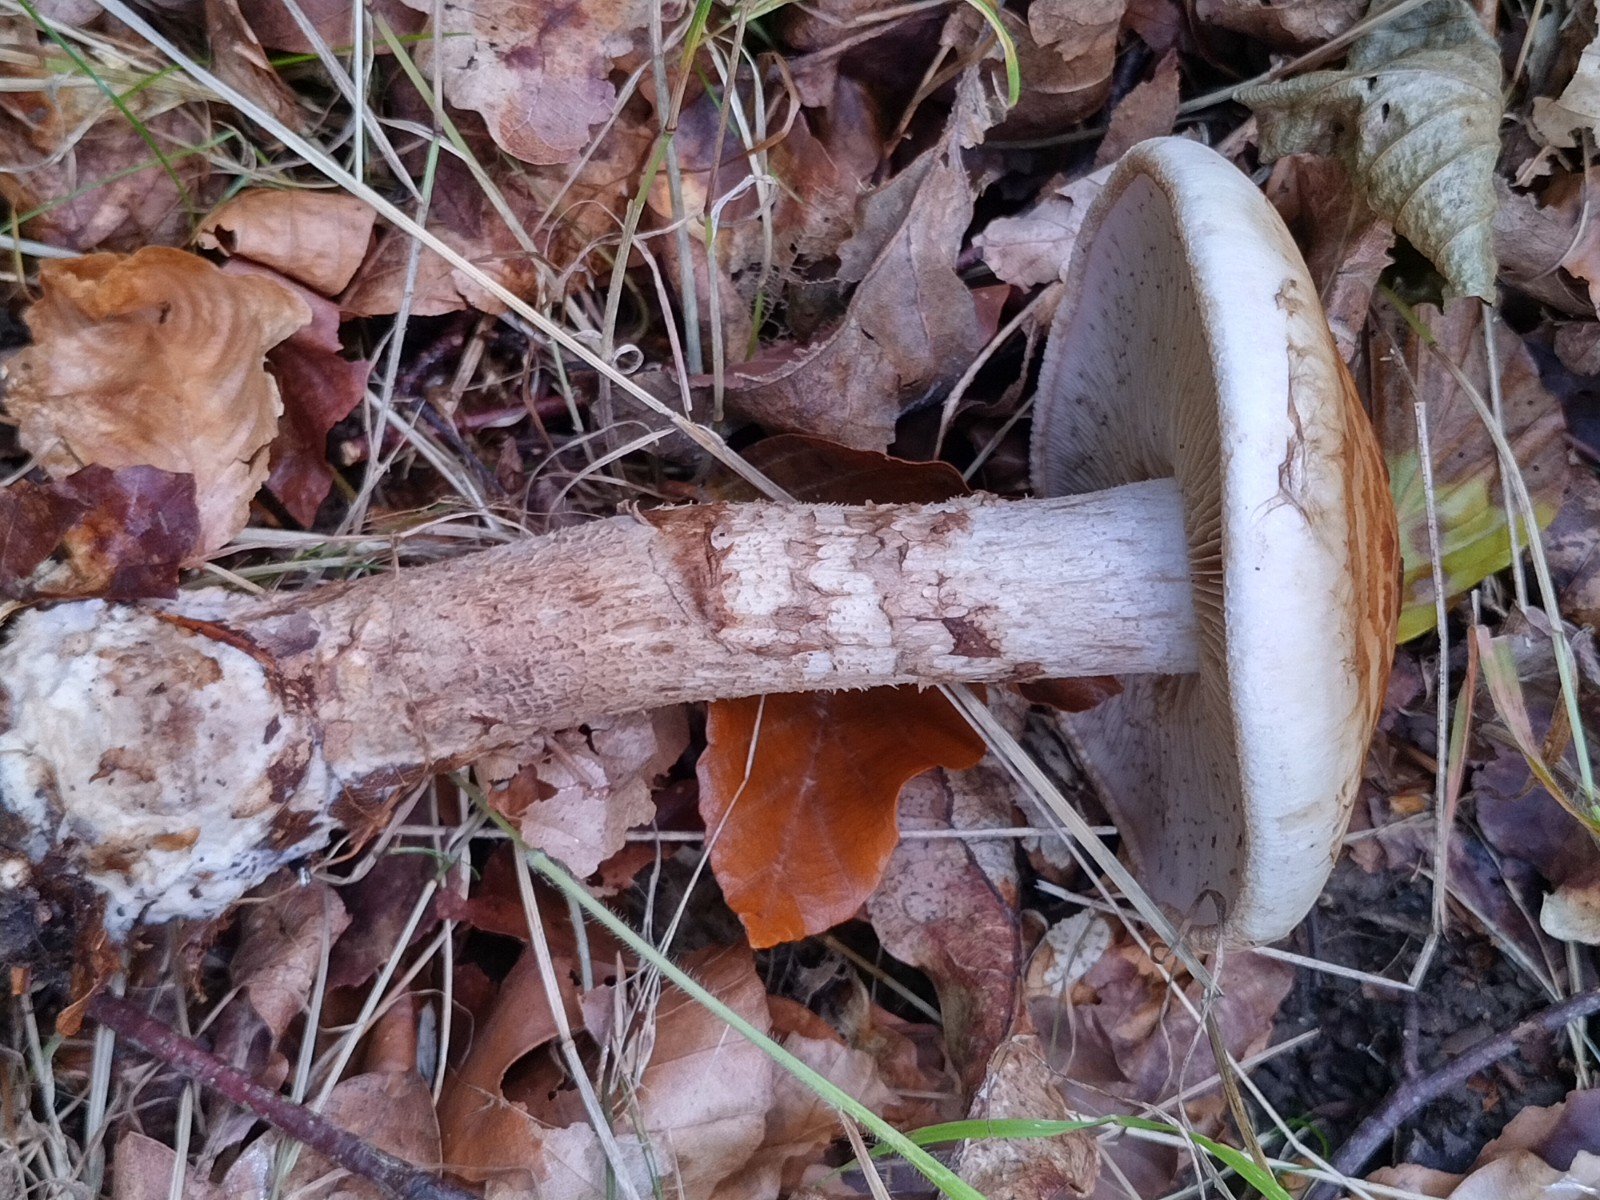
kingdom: Fungi
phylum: Basidiomycota
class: Agaricomycetes
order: Agaricales
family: Hymenogastraceae
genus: Hebeloma
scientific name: Hebeloma radicosum
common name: pælerods-tåreblad
